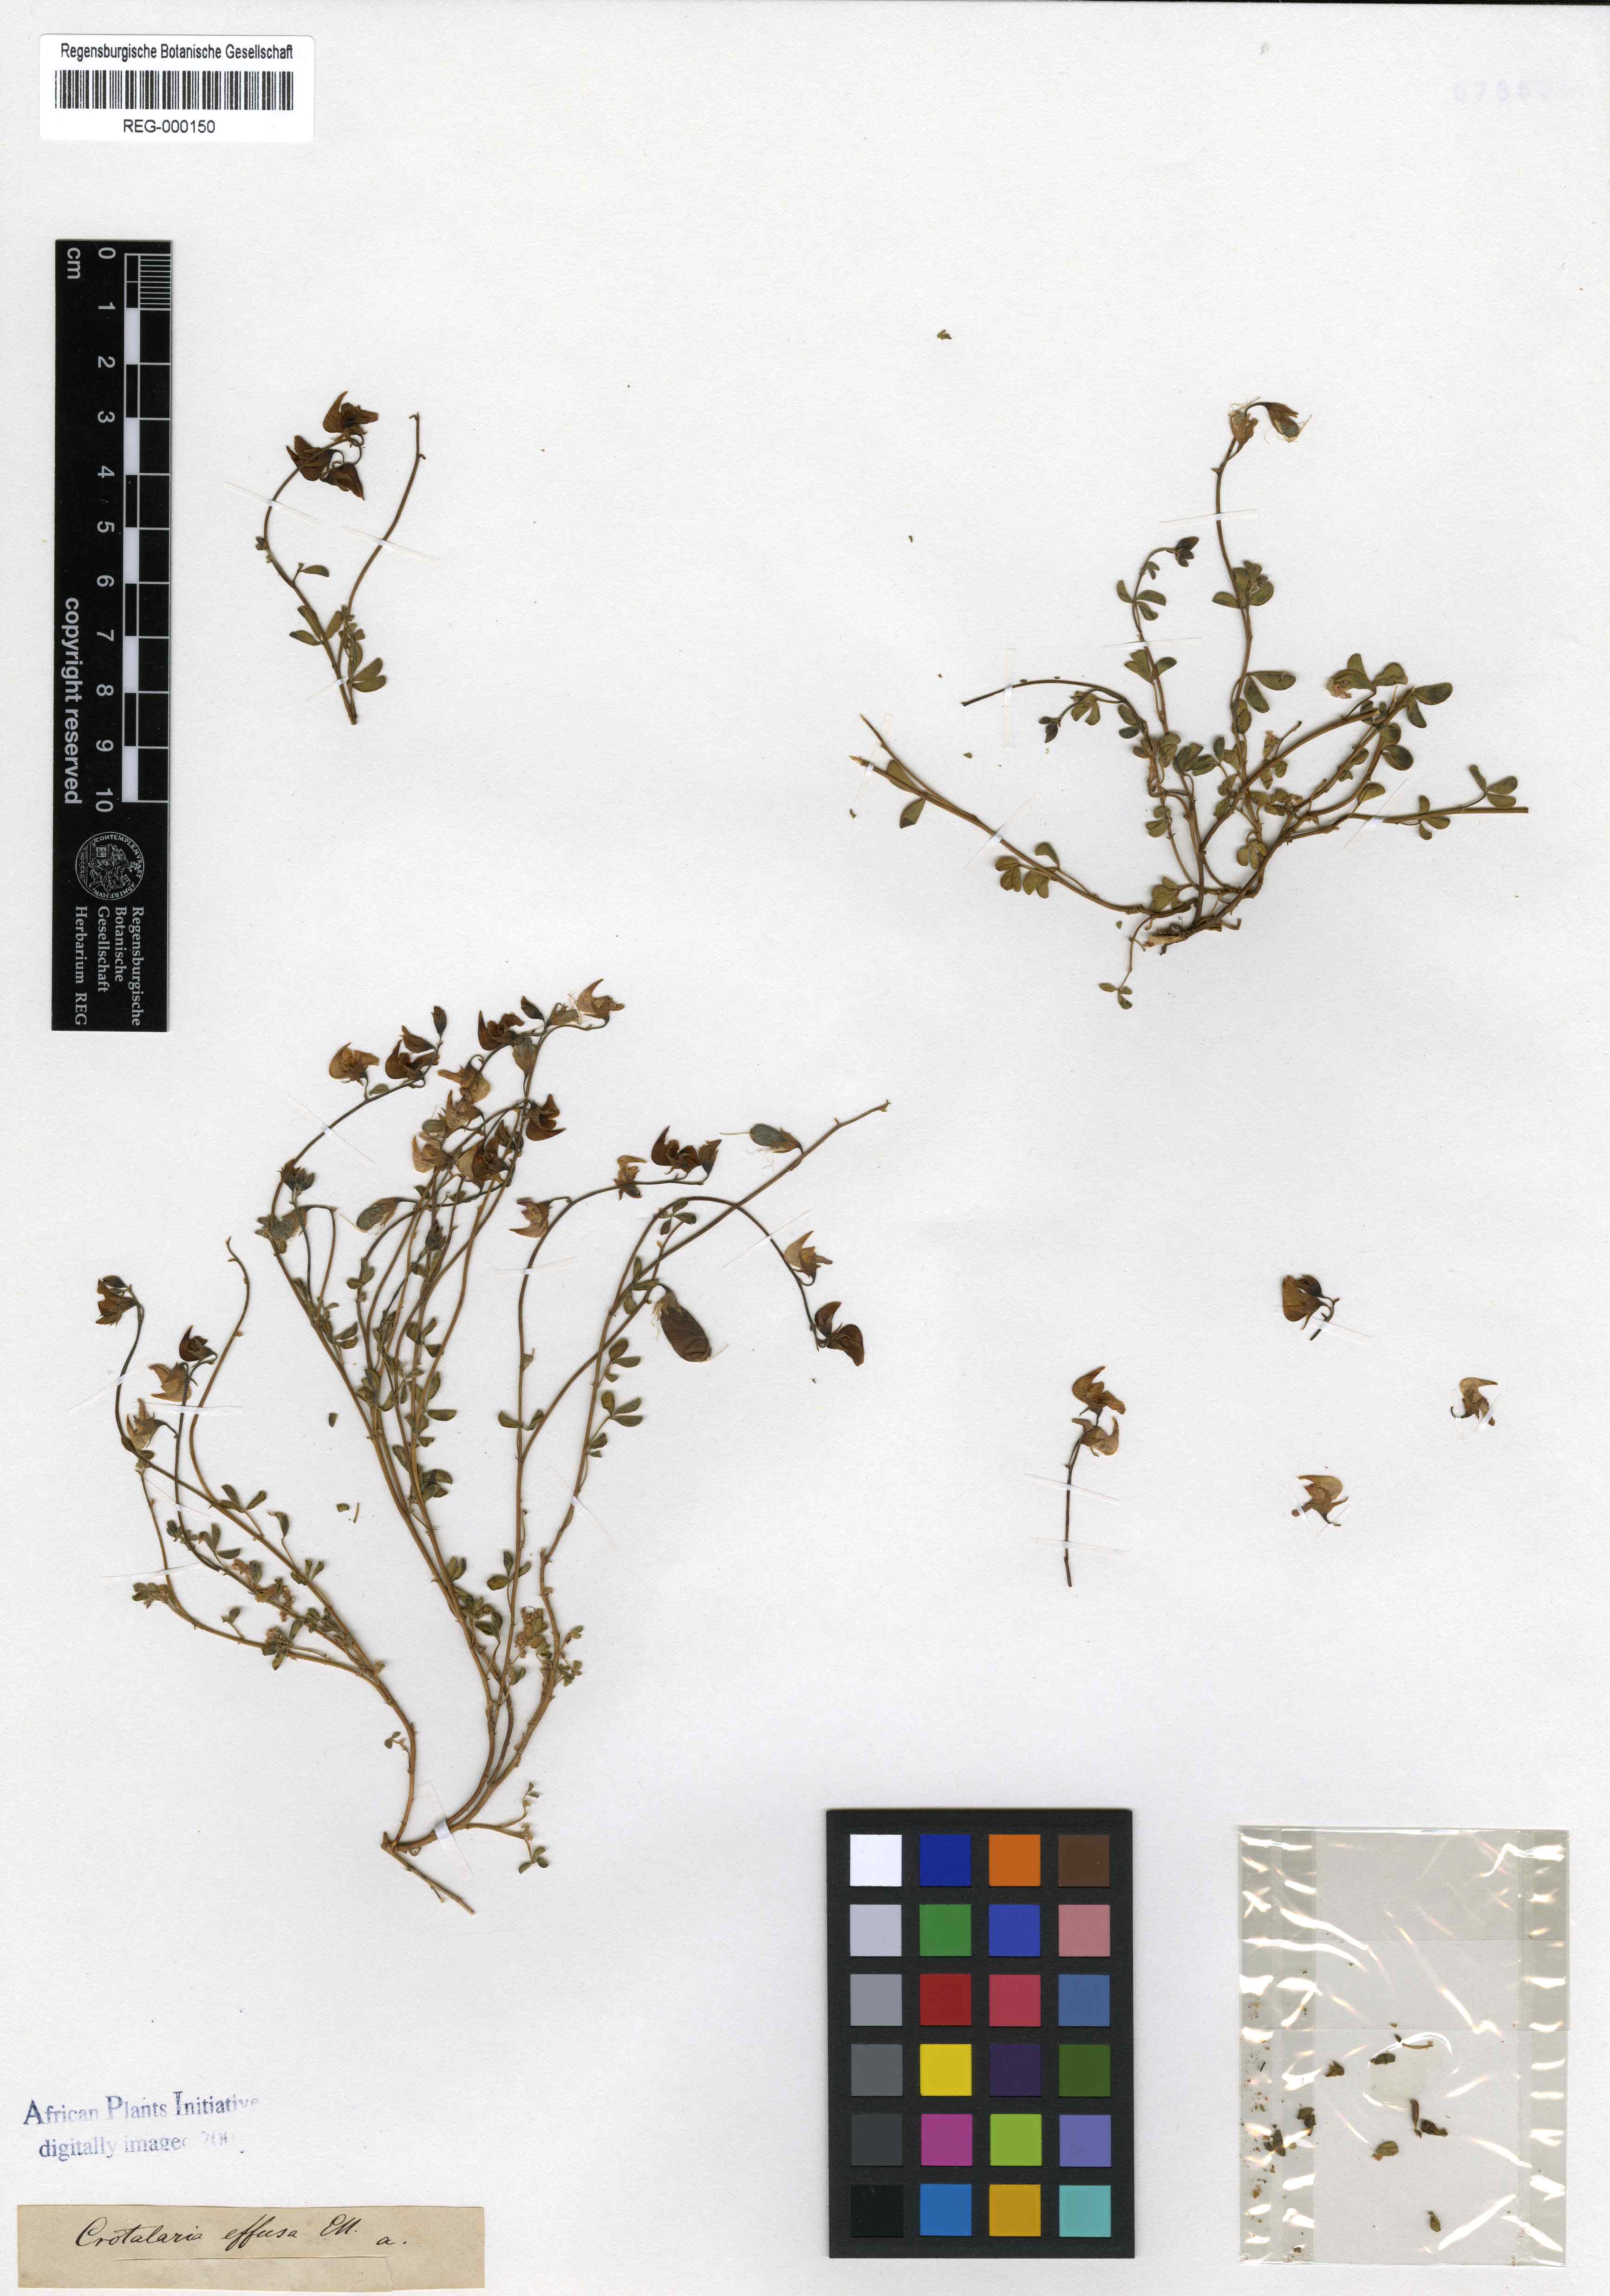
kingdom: Plantae
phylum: Tracheophyta
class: Magnoliopsida
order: Fabales
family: Fabaceae
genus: Crotalaria
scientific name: Crotalaria humilis
